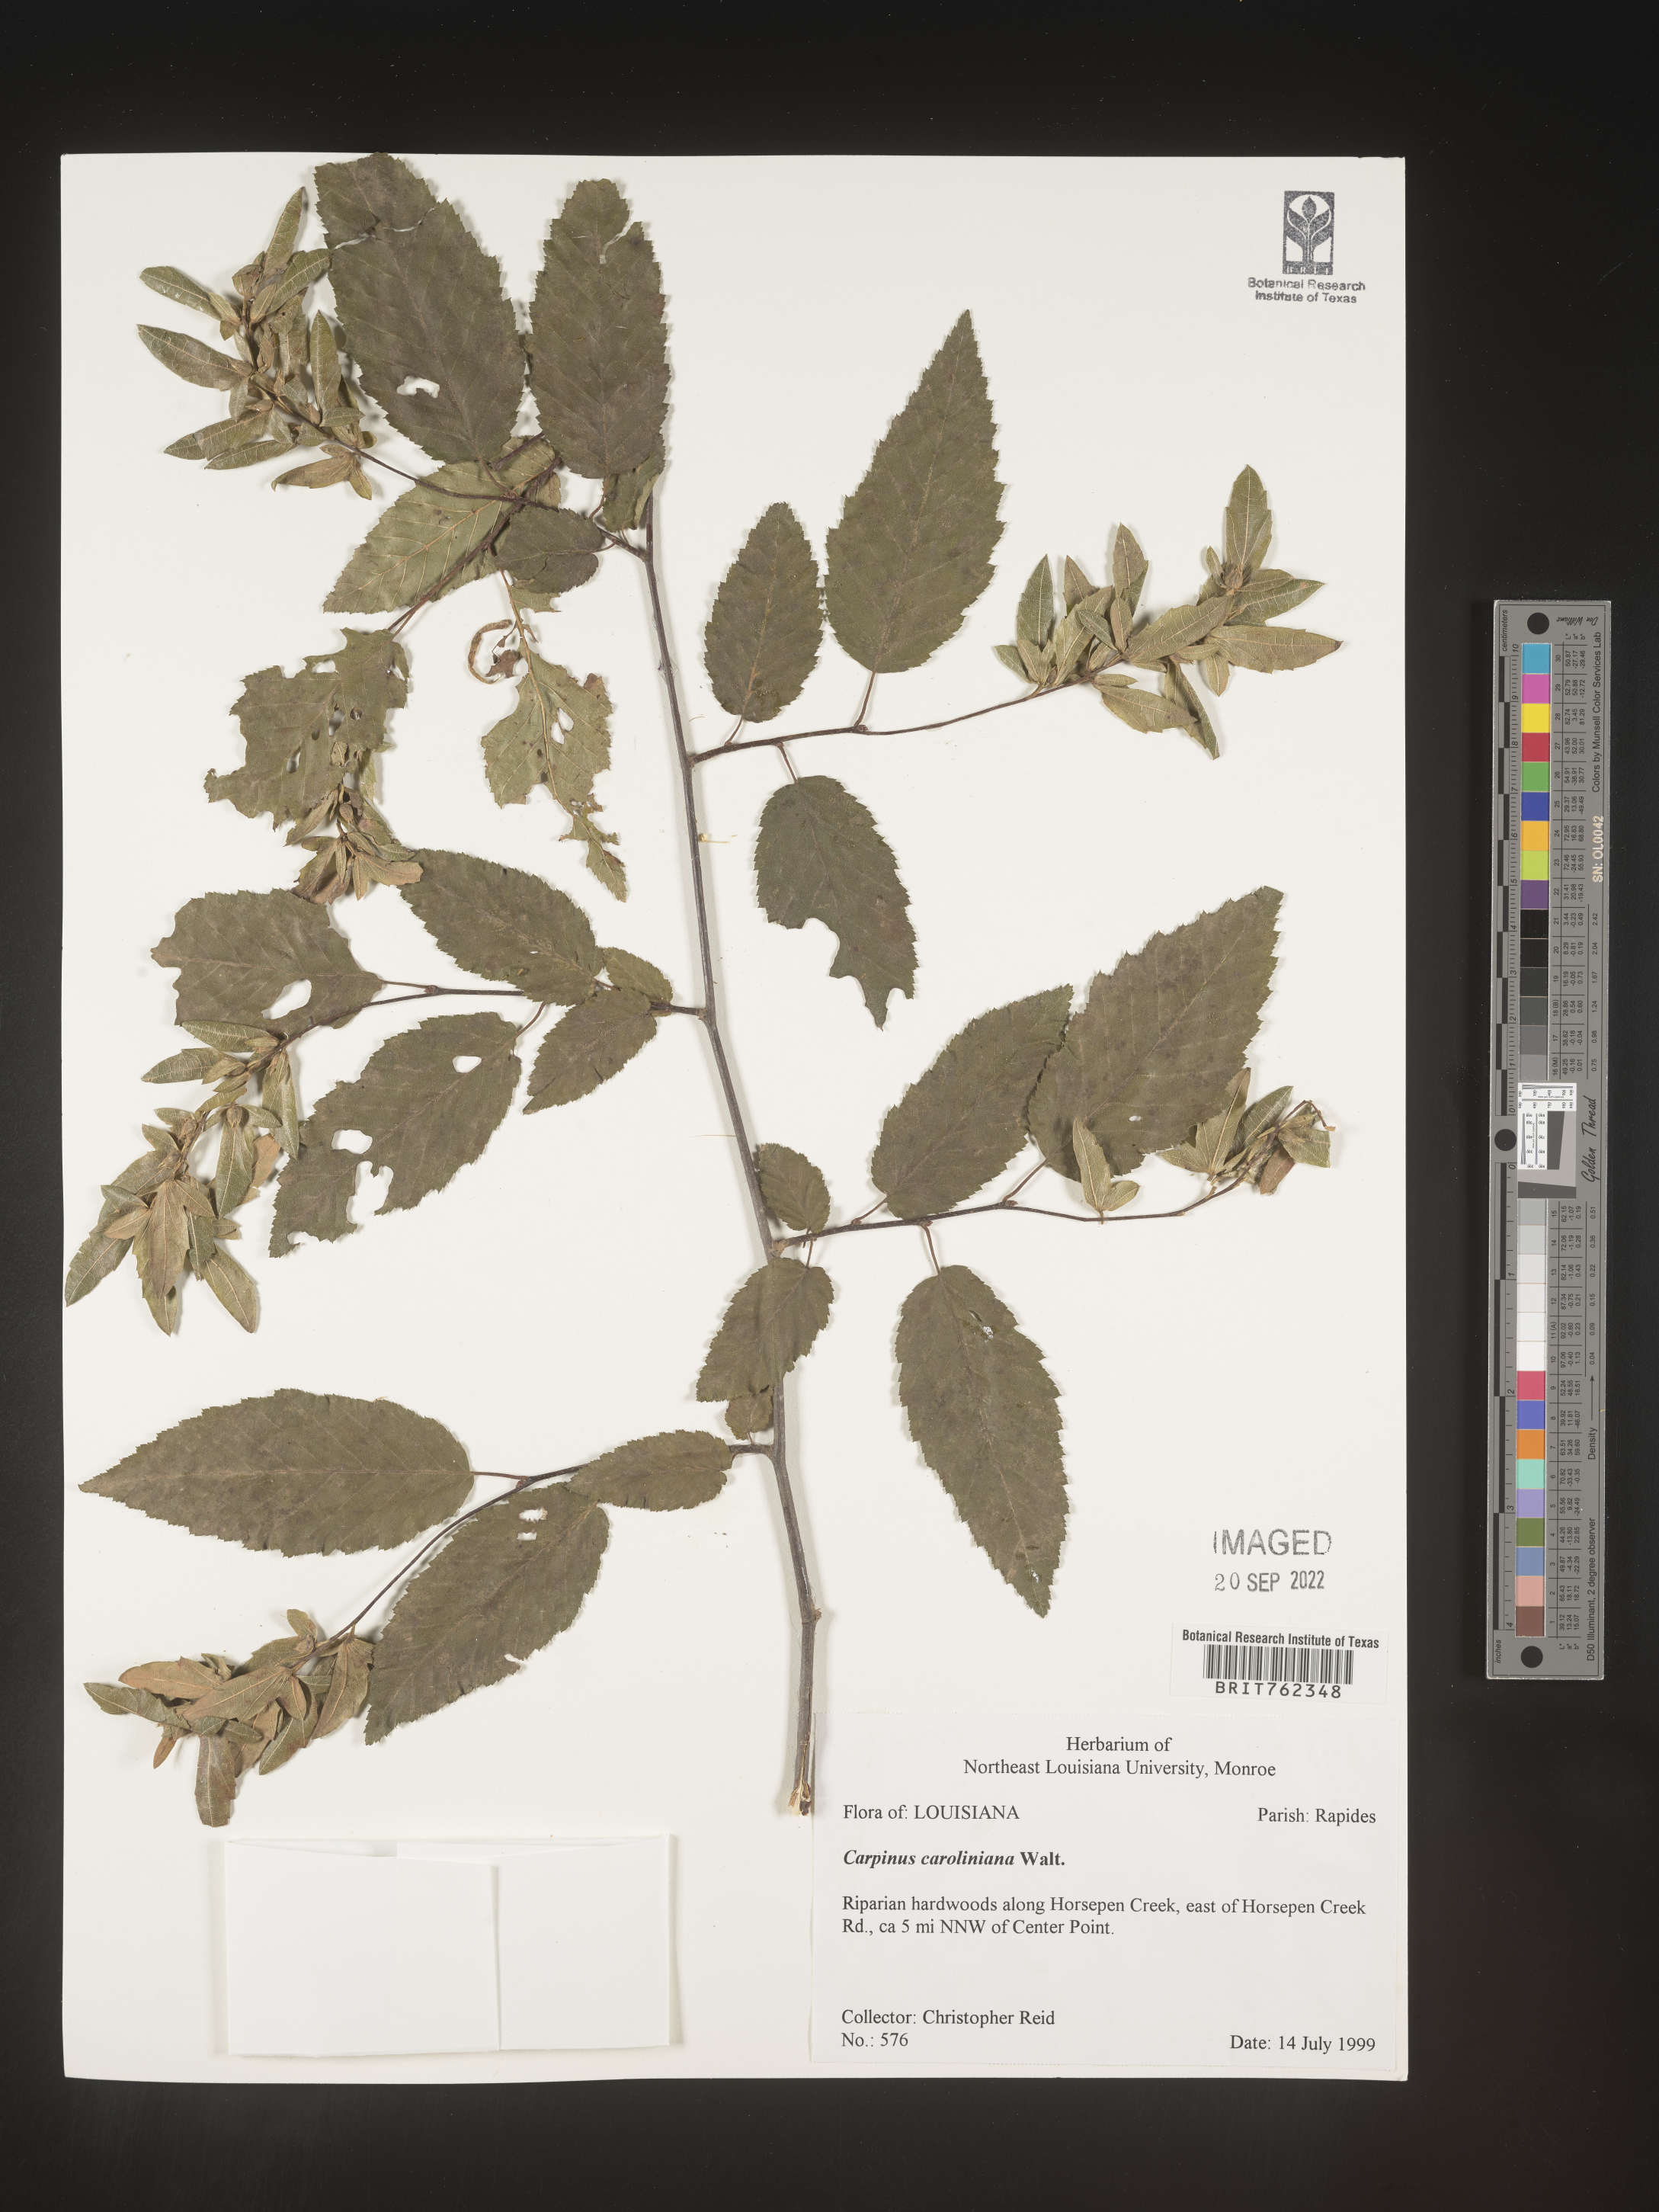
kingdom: Plantae
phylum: Tracheophyta
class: Magnoliopsida
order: Fagales
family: Betulaceae
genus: Carpinus
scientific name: Carpinus caroliniana
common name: American hornbeam
